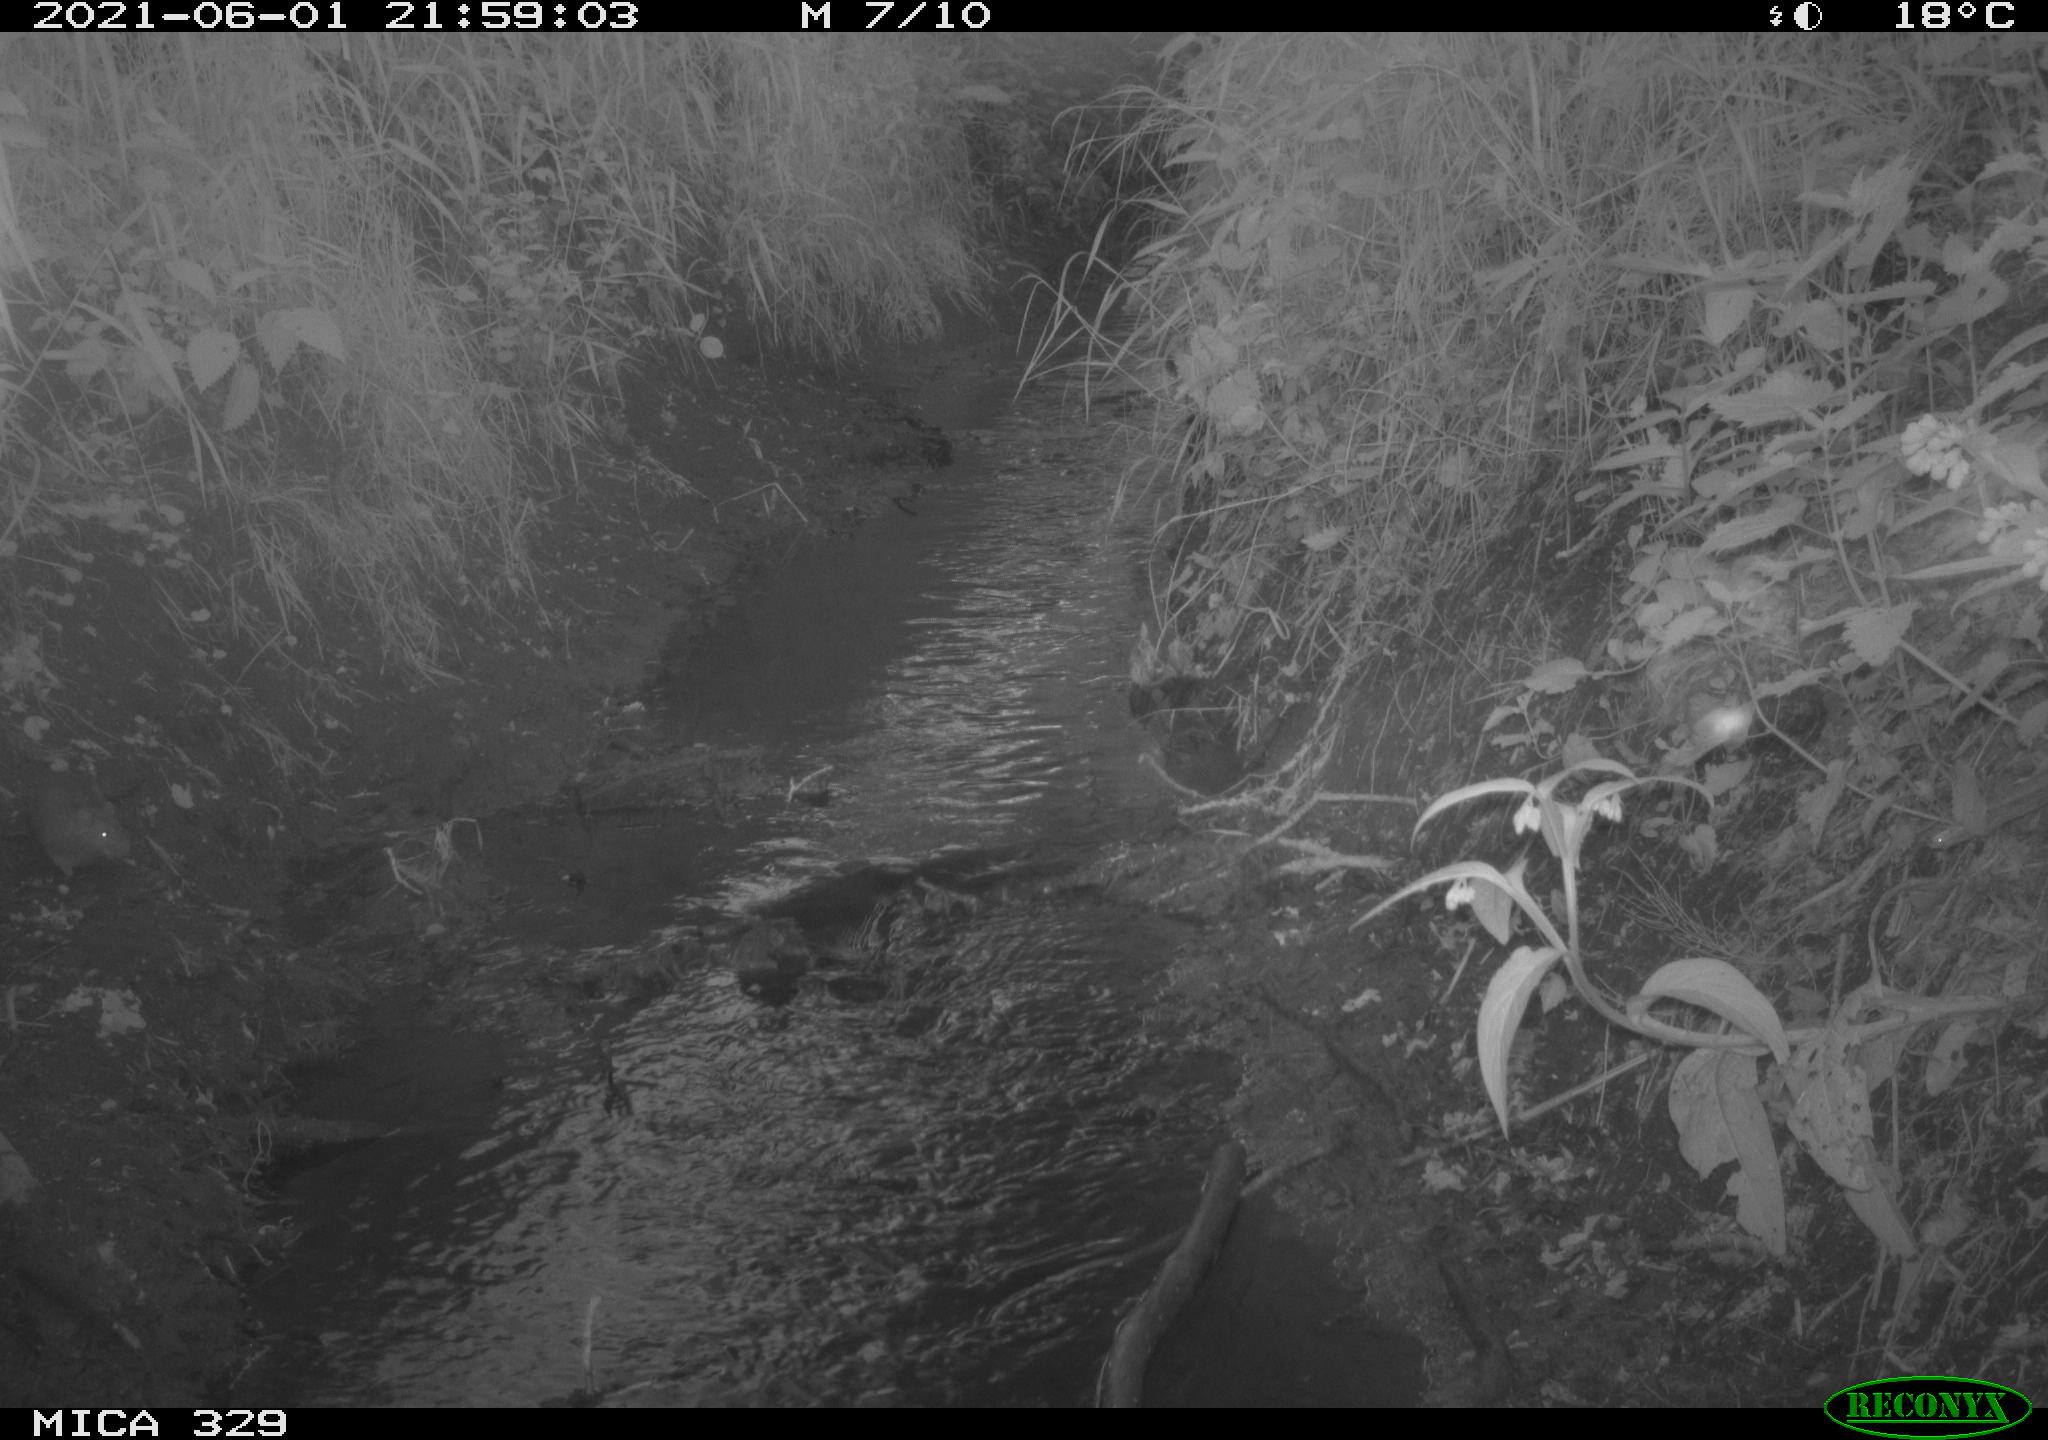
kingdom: Animalia
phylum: Chordata
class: Mammalia
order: Rodentia
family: Muridae
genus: Rattus
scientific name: Rattus norvegicus
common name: Brown rat
